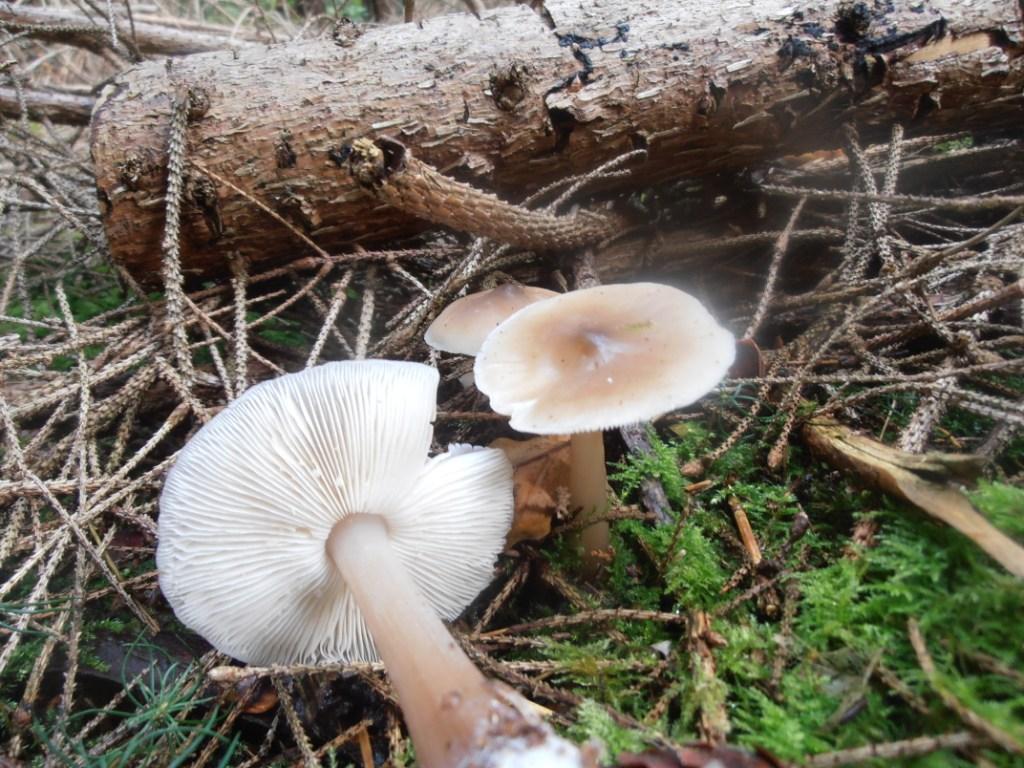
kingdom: Fungi
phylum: Basidiomycota
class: Agaricomycetes
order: Agaricales
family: Omphalotaceae
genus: Rhodocollybia
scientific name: Rhodocollybia asema
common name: horngrå fladhat
